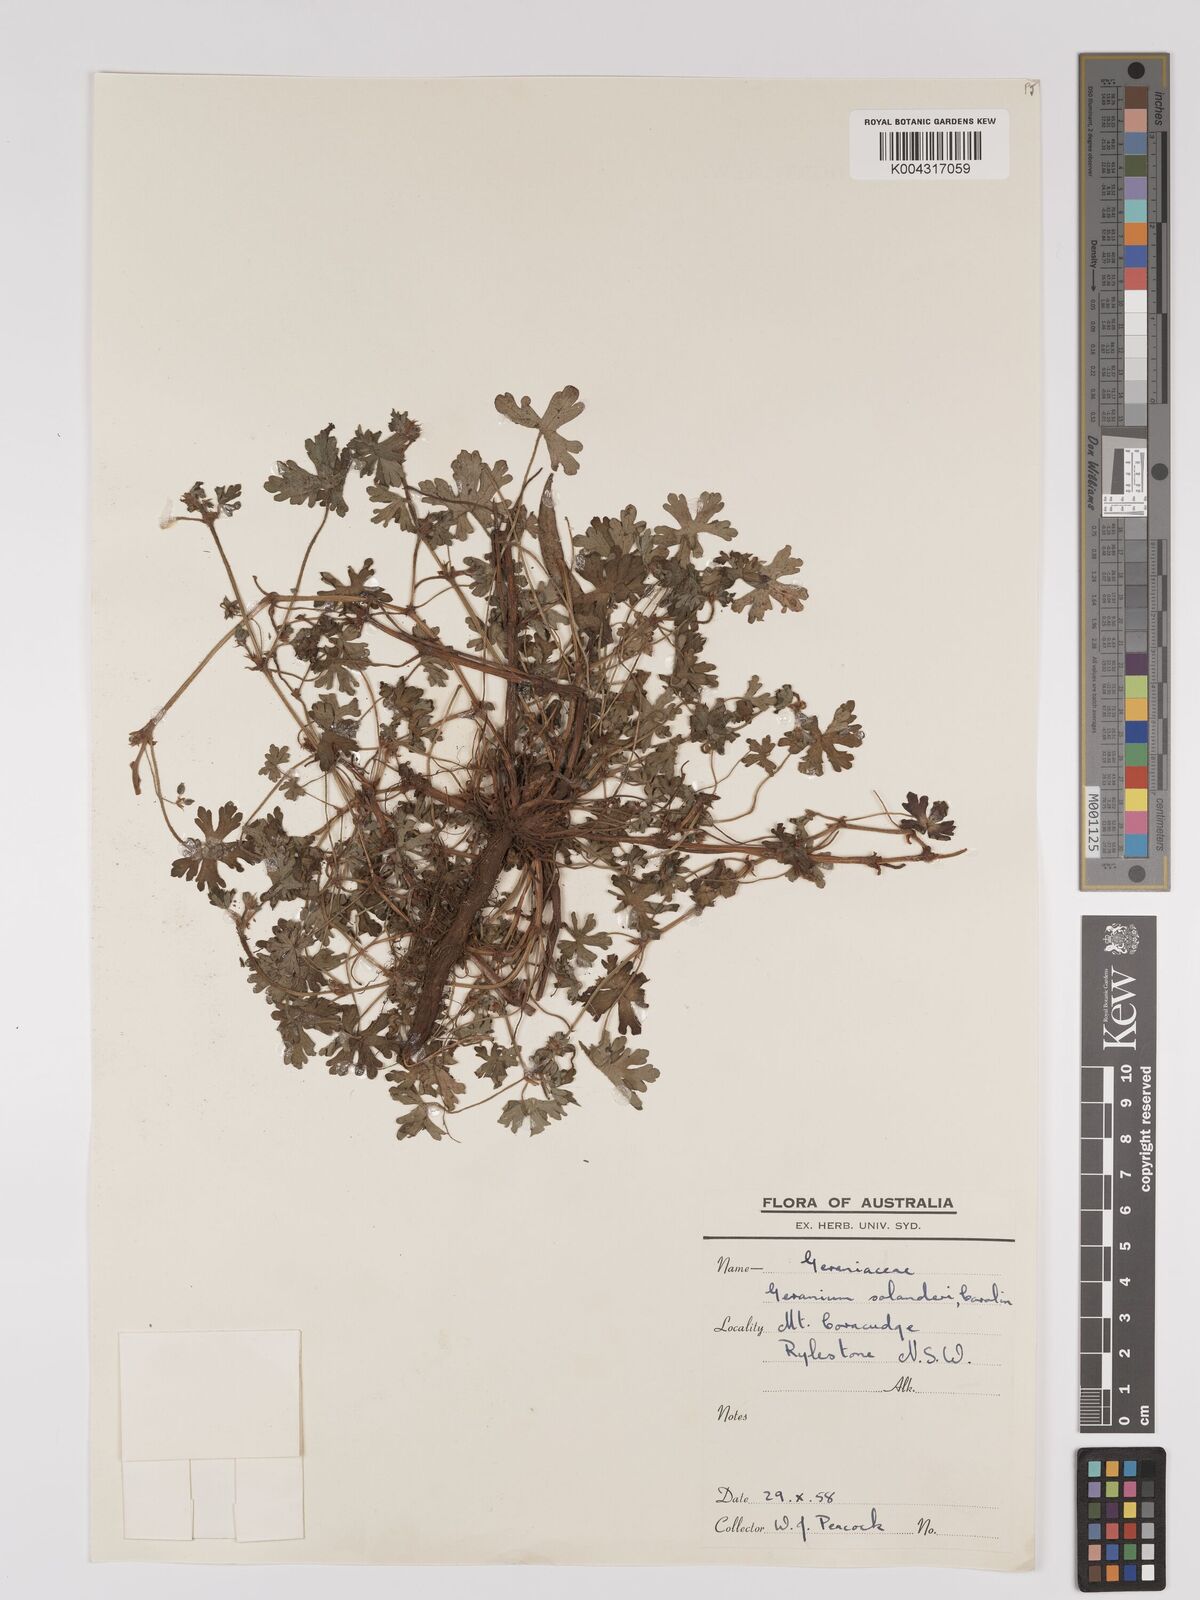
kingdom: Plantae
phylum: Tracheophyta
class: Magnoliopsida
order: Geraniales
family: Geraniaceae
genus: Geranium
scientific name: Geranium solanderi
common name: Solander's geranium
